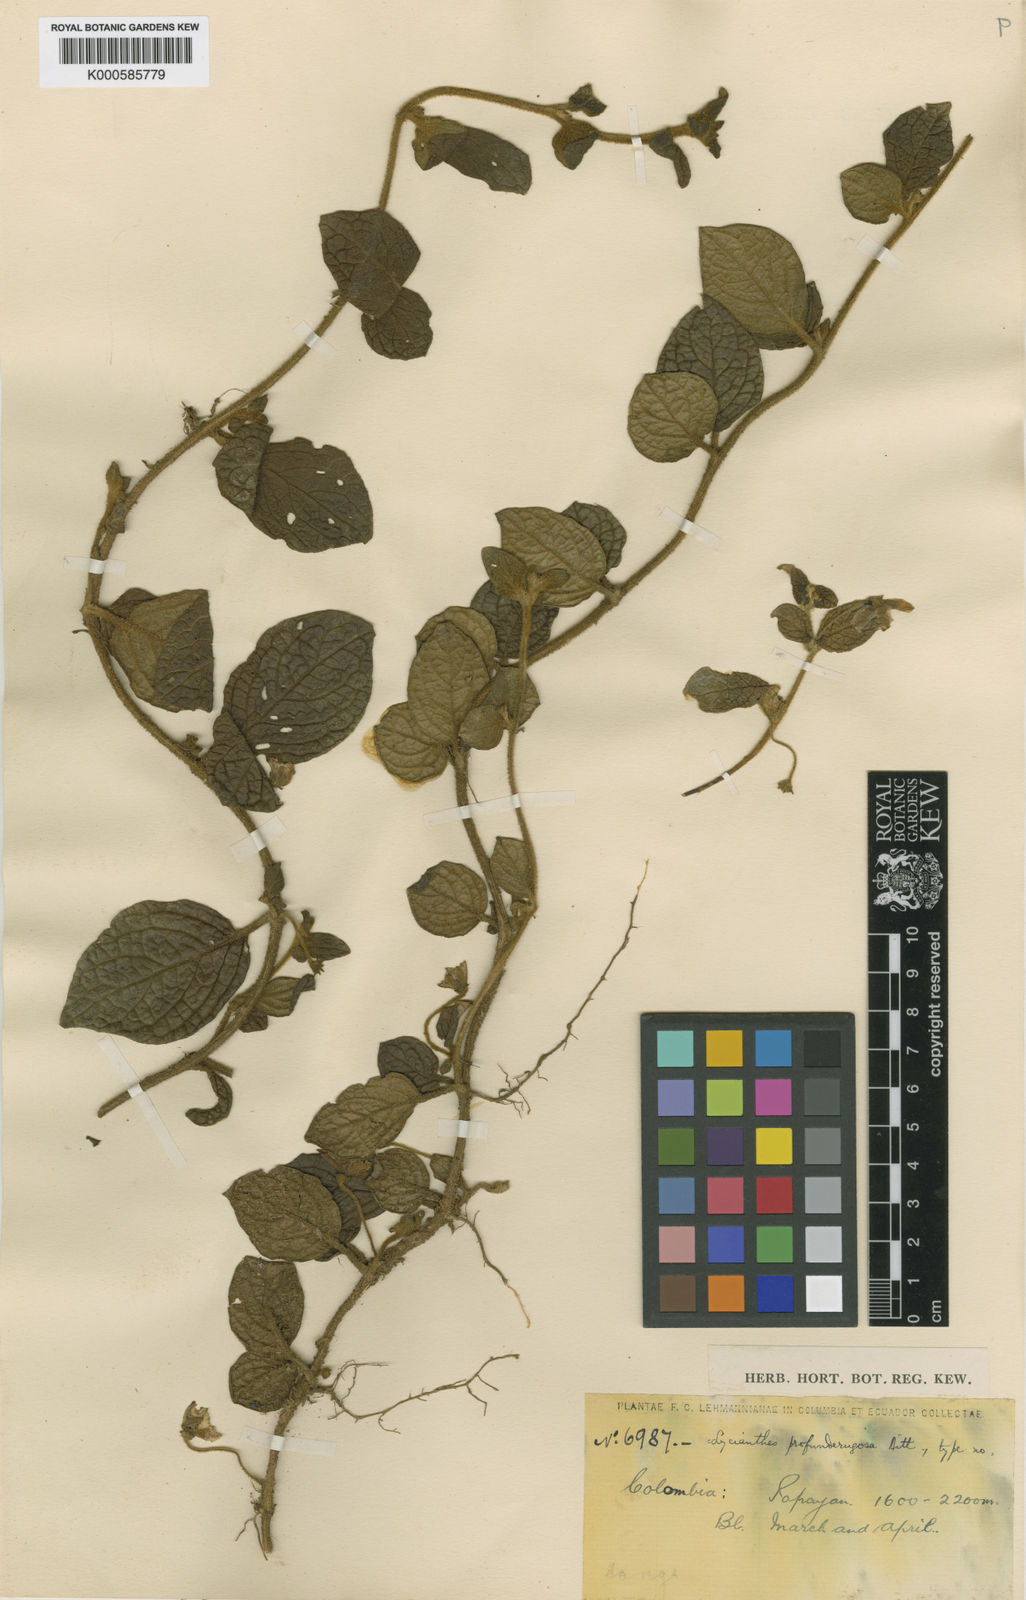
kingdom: Plantae
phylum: Tracheophyta
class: Magnoliopsida
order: Solanales
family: Solanaceae
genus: Lycianthes
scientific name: Lycianthes profunderugosa
